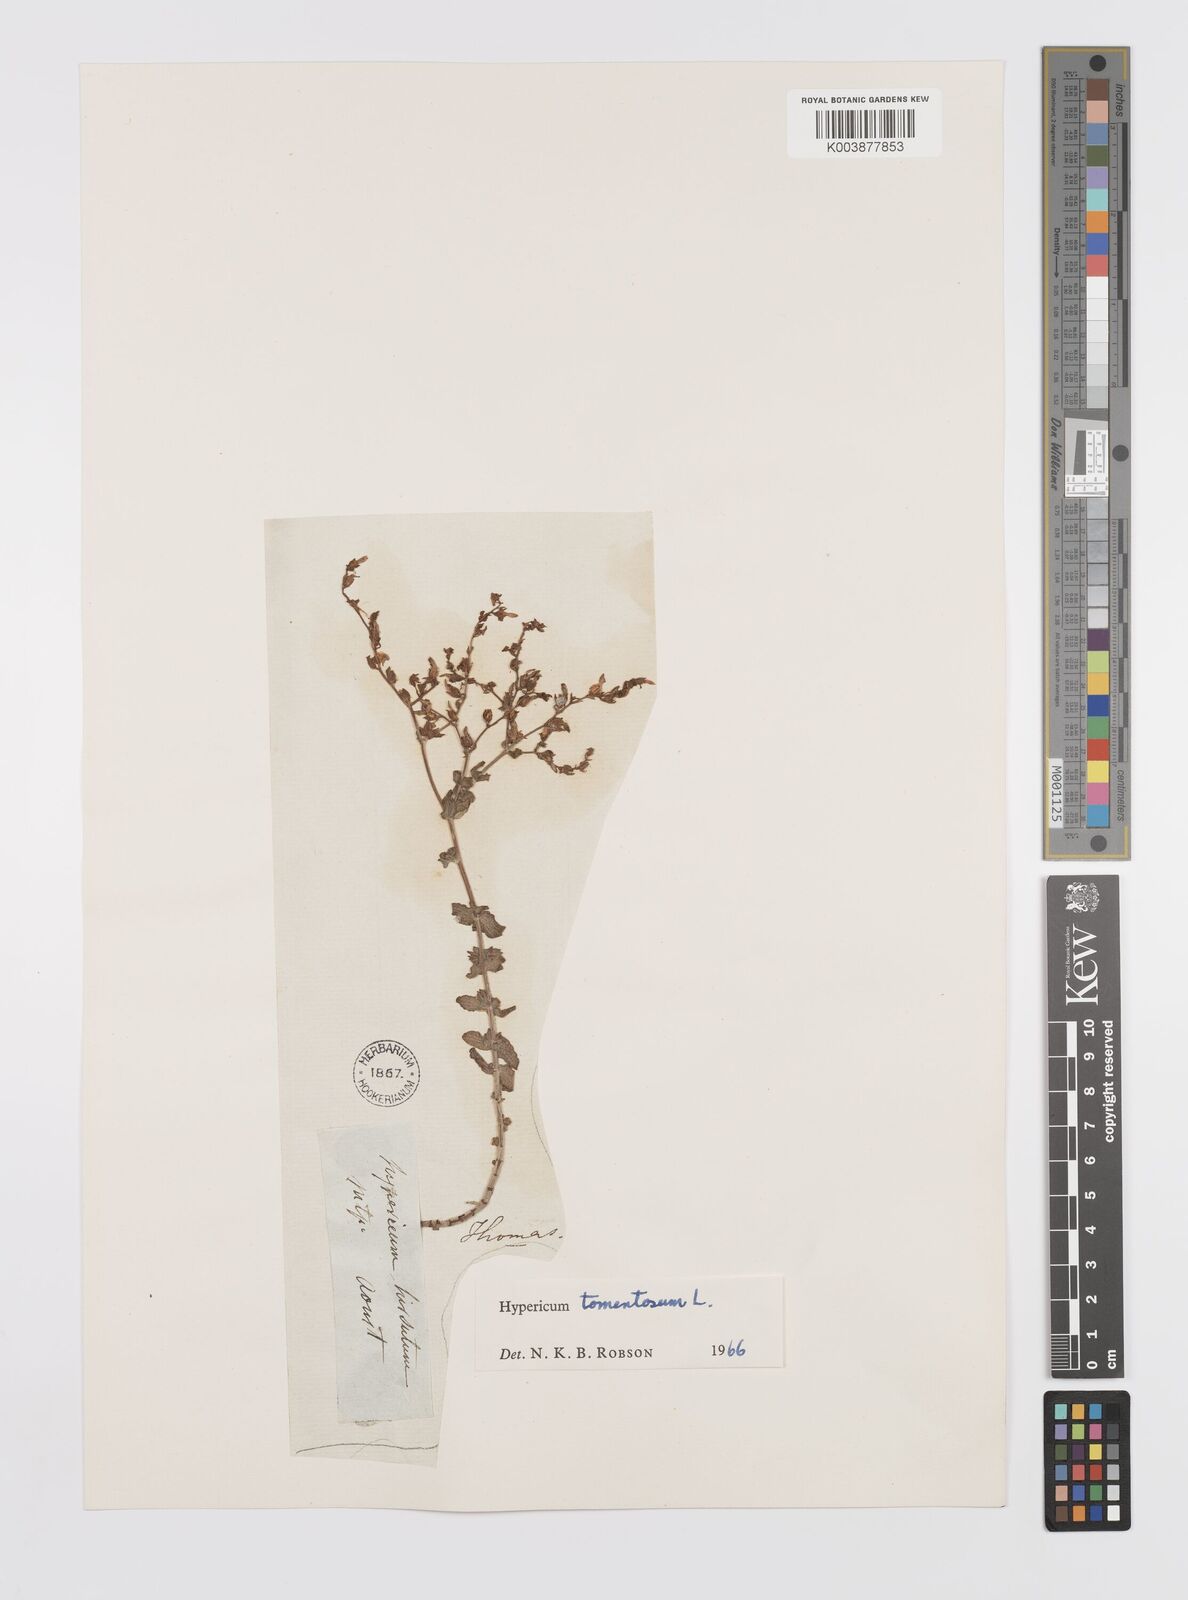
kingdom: Plantae
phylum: Tracheophyta
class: Magnoliopsida
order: Malpighiales
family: Hypericaceae
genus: Hypericum
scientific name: Hypericum tomentosum
